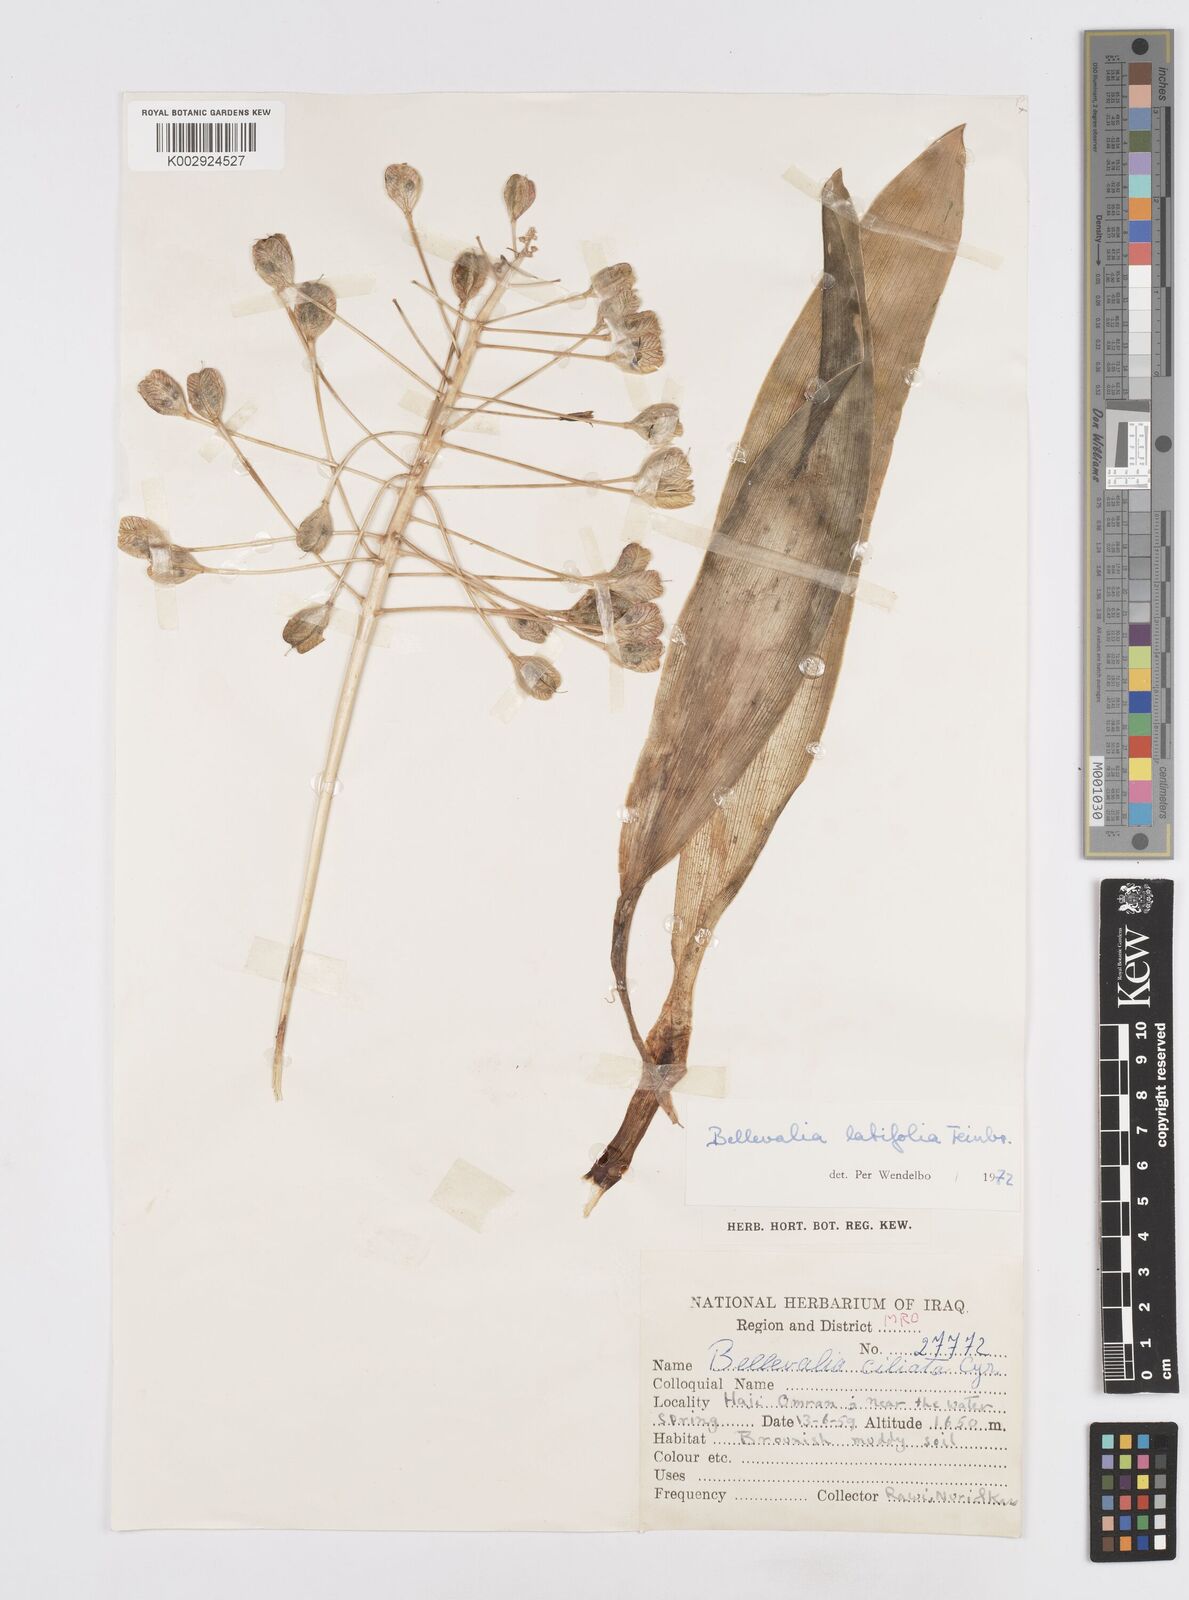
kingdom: Plantae
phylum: Tracheophyta
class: Liliopsida
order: Asparagales
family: Asparagaceae
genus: Bellevalia
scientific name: Bellevalia olivieri
